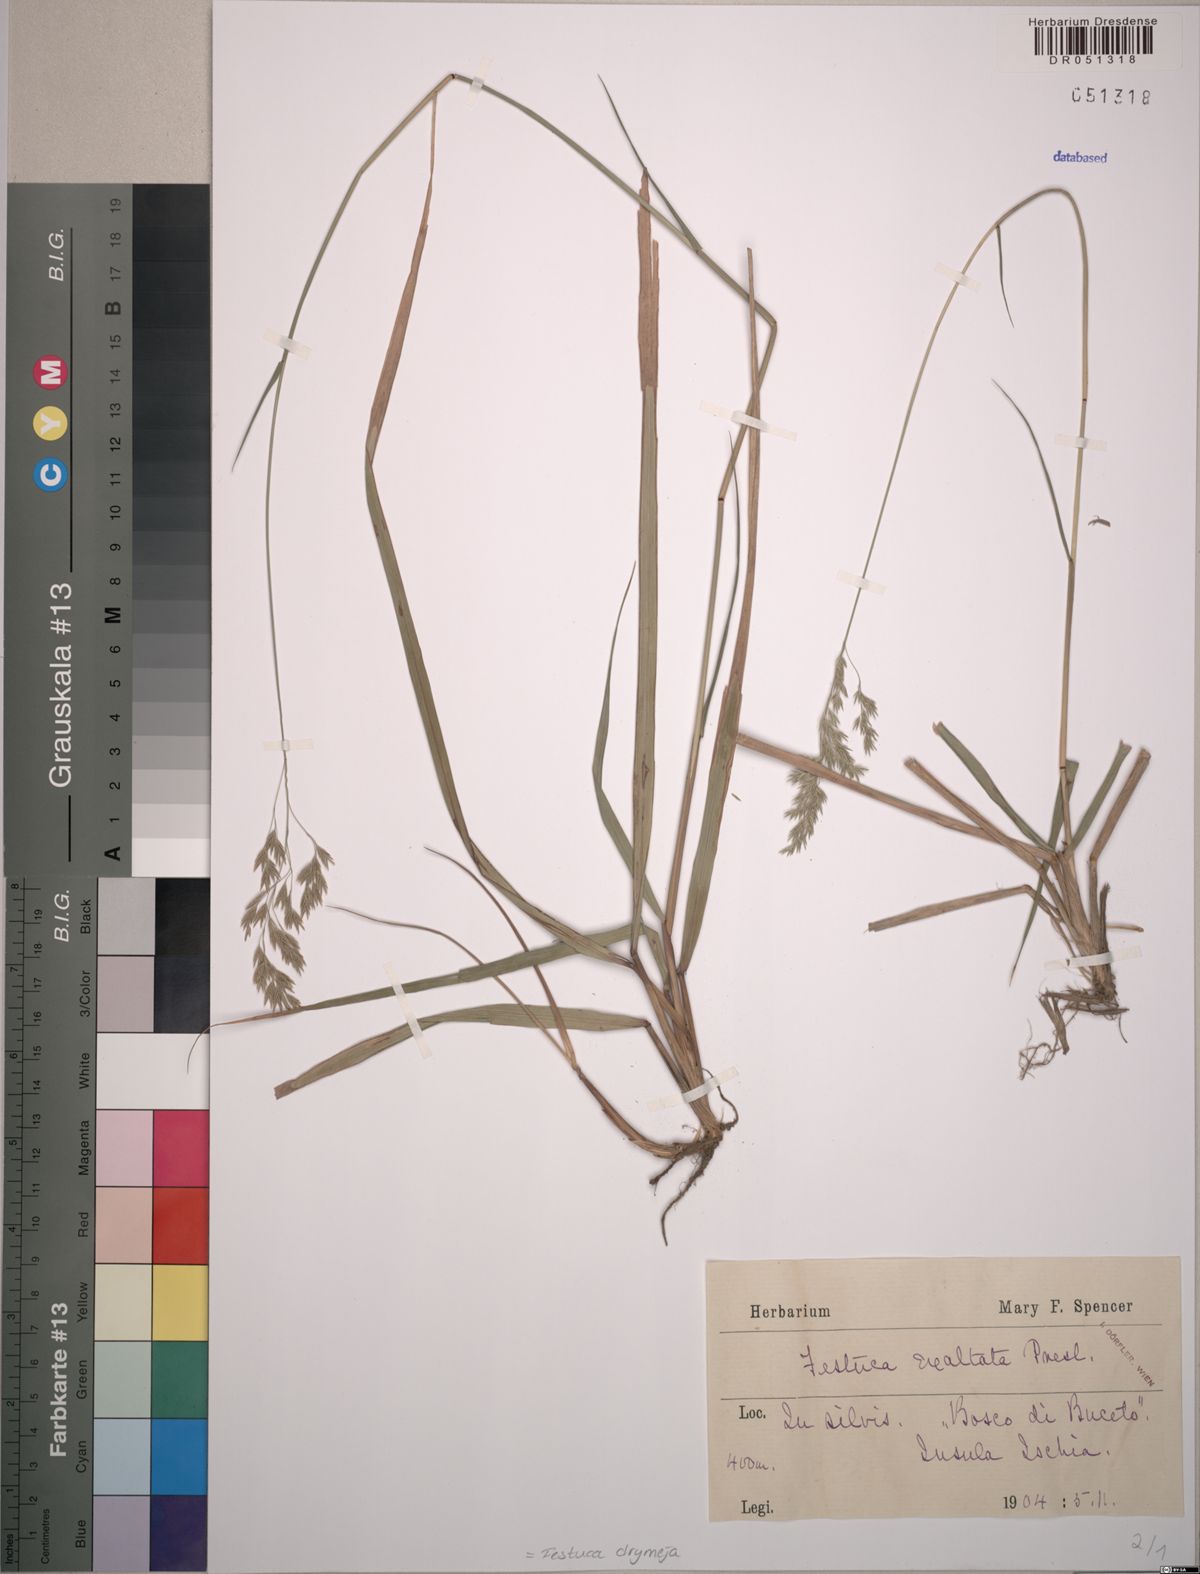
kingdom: Plantae
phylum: Tracheophyta
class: Liliopsida
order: Poales
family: Poaceae
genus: Festuca
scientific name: Festuca drymeja
